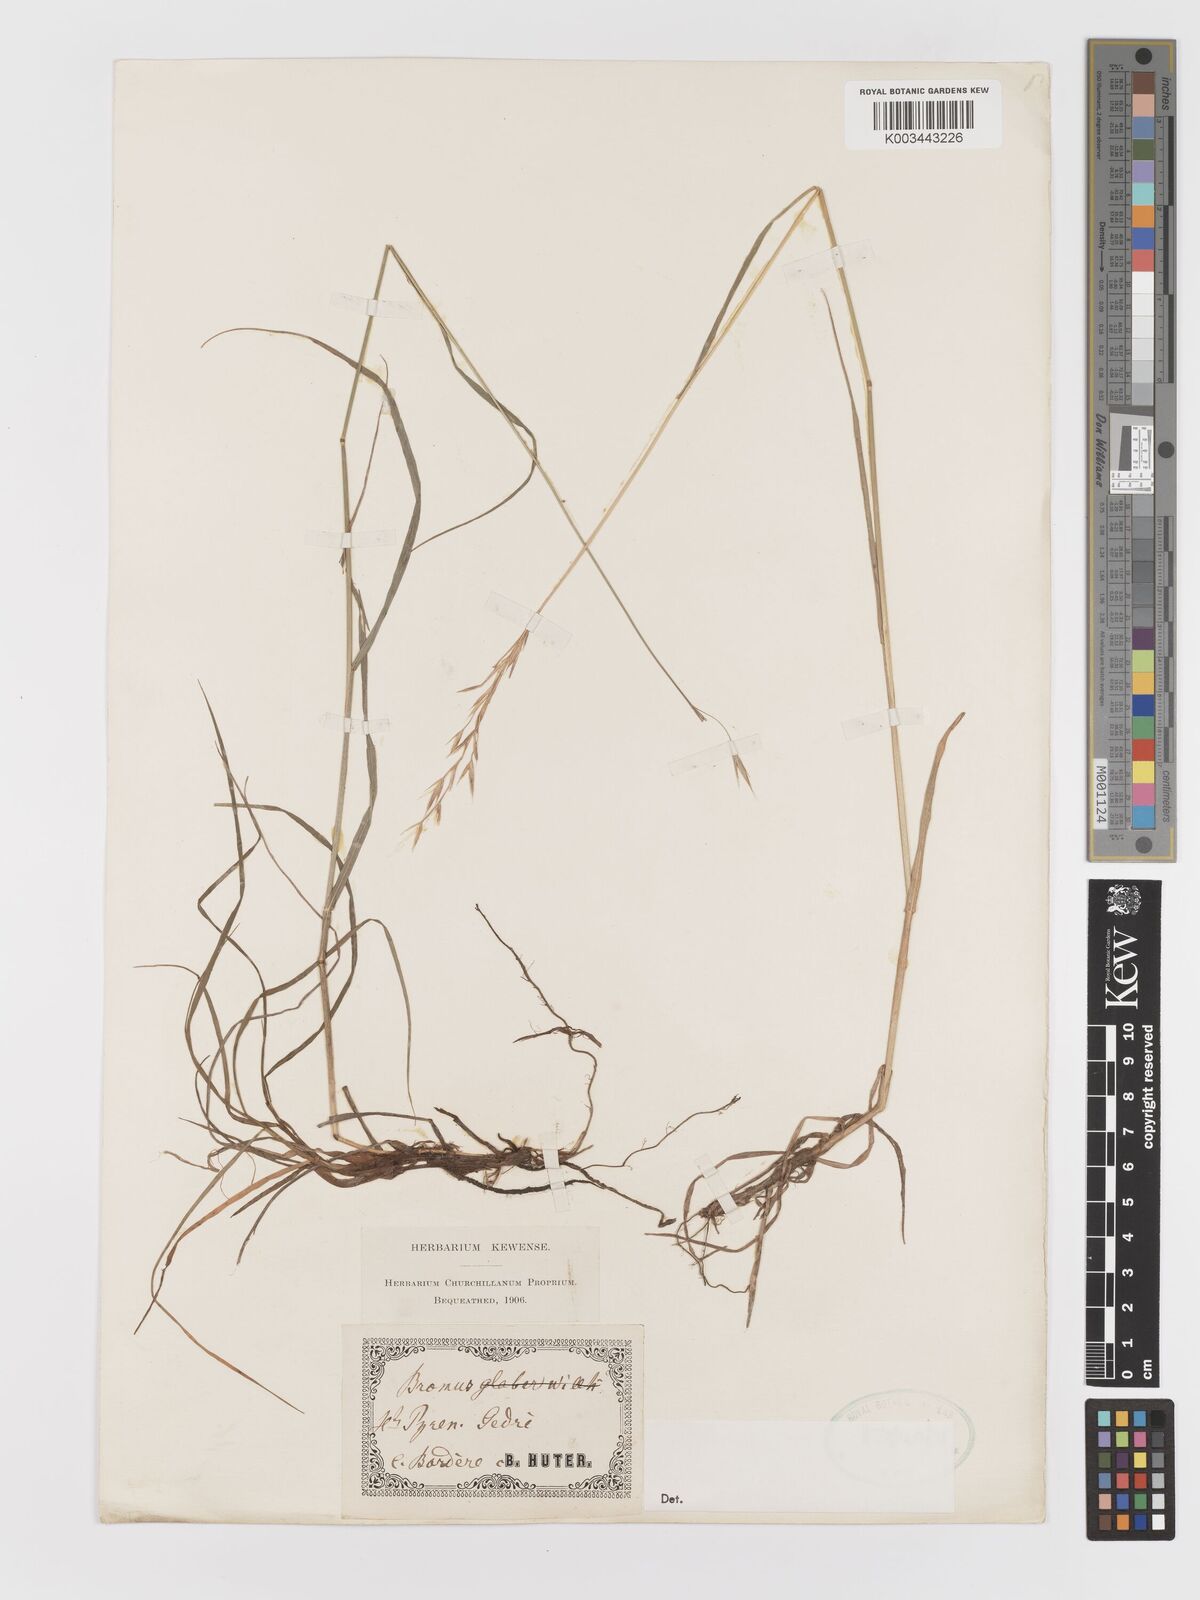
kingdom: Plantae
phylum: Tracheophyta
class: Liliopsida
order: Poales
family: Poaceae
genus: Bromus
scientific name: Bromus
